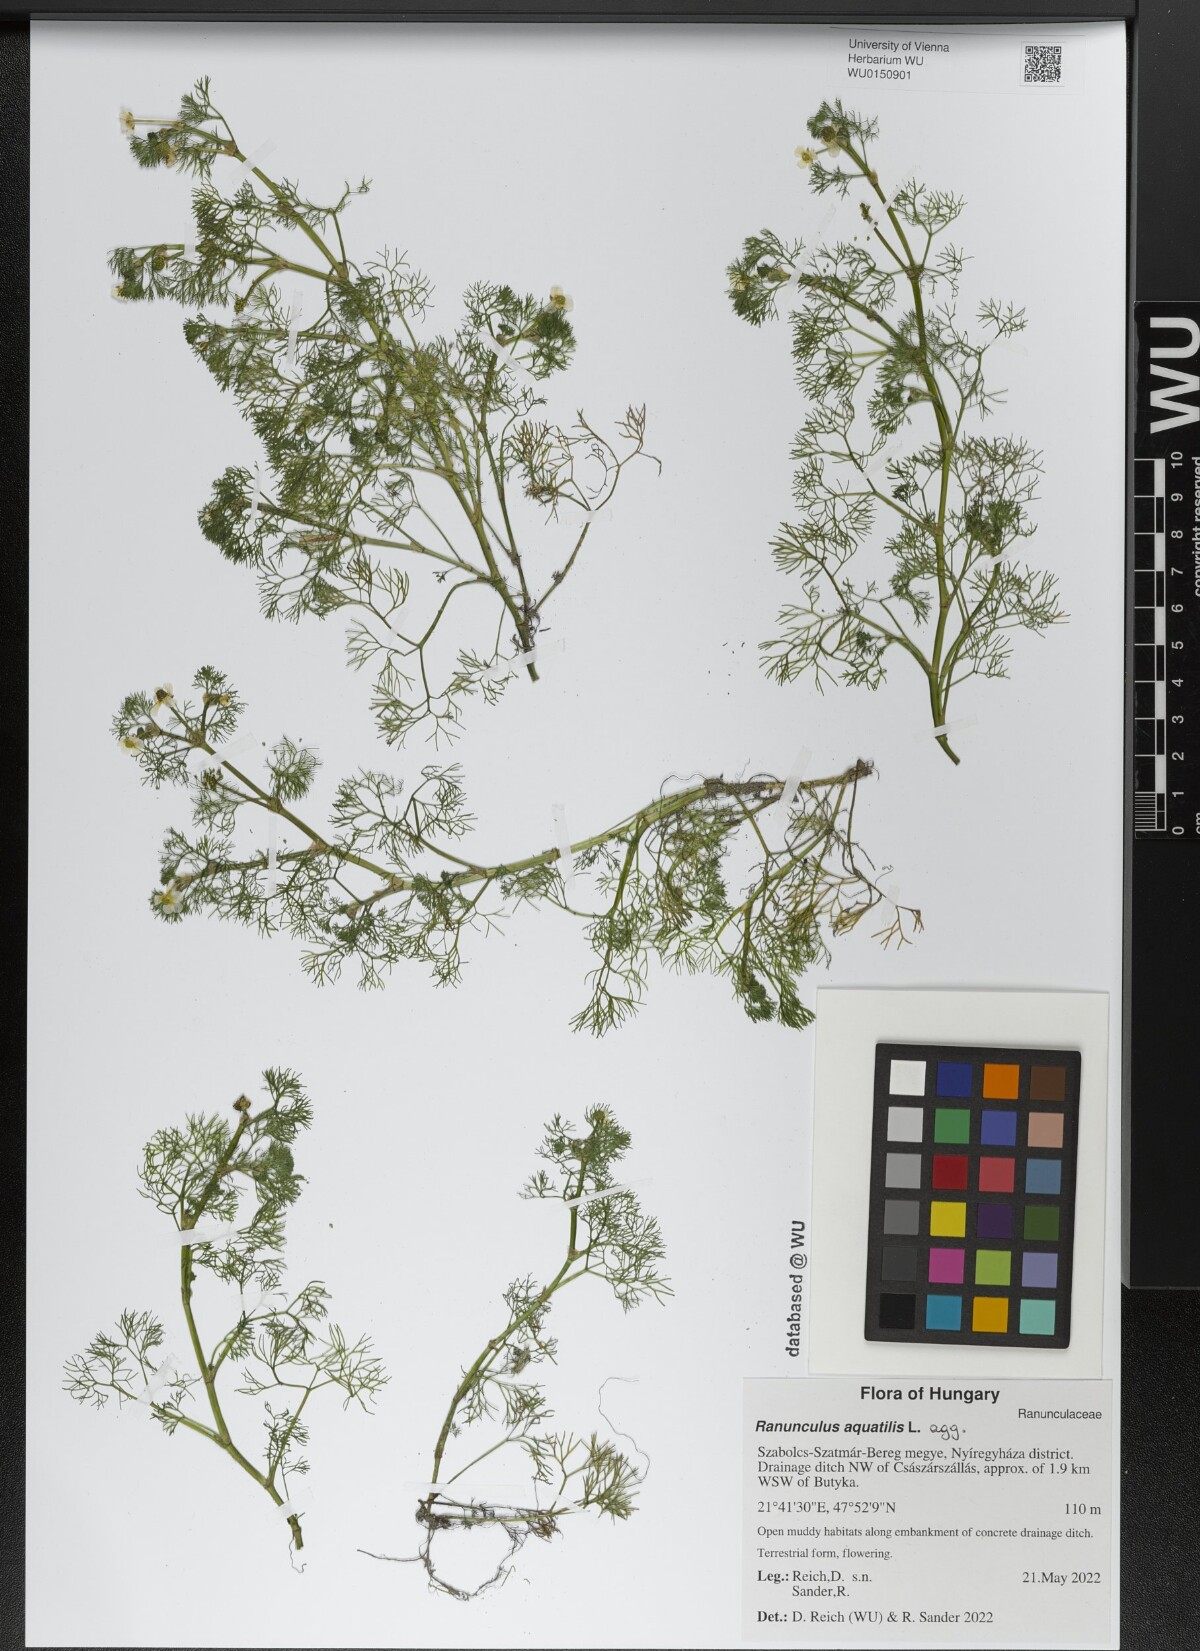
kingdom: Plantae
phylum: Tracheophyta
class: Magnoliopsida
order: Ranunculales
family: Ranunculaceae
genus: Ranunculus
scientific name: Ranunculus aquatilis
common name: Common water-crowfoot
